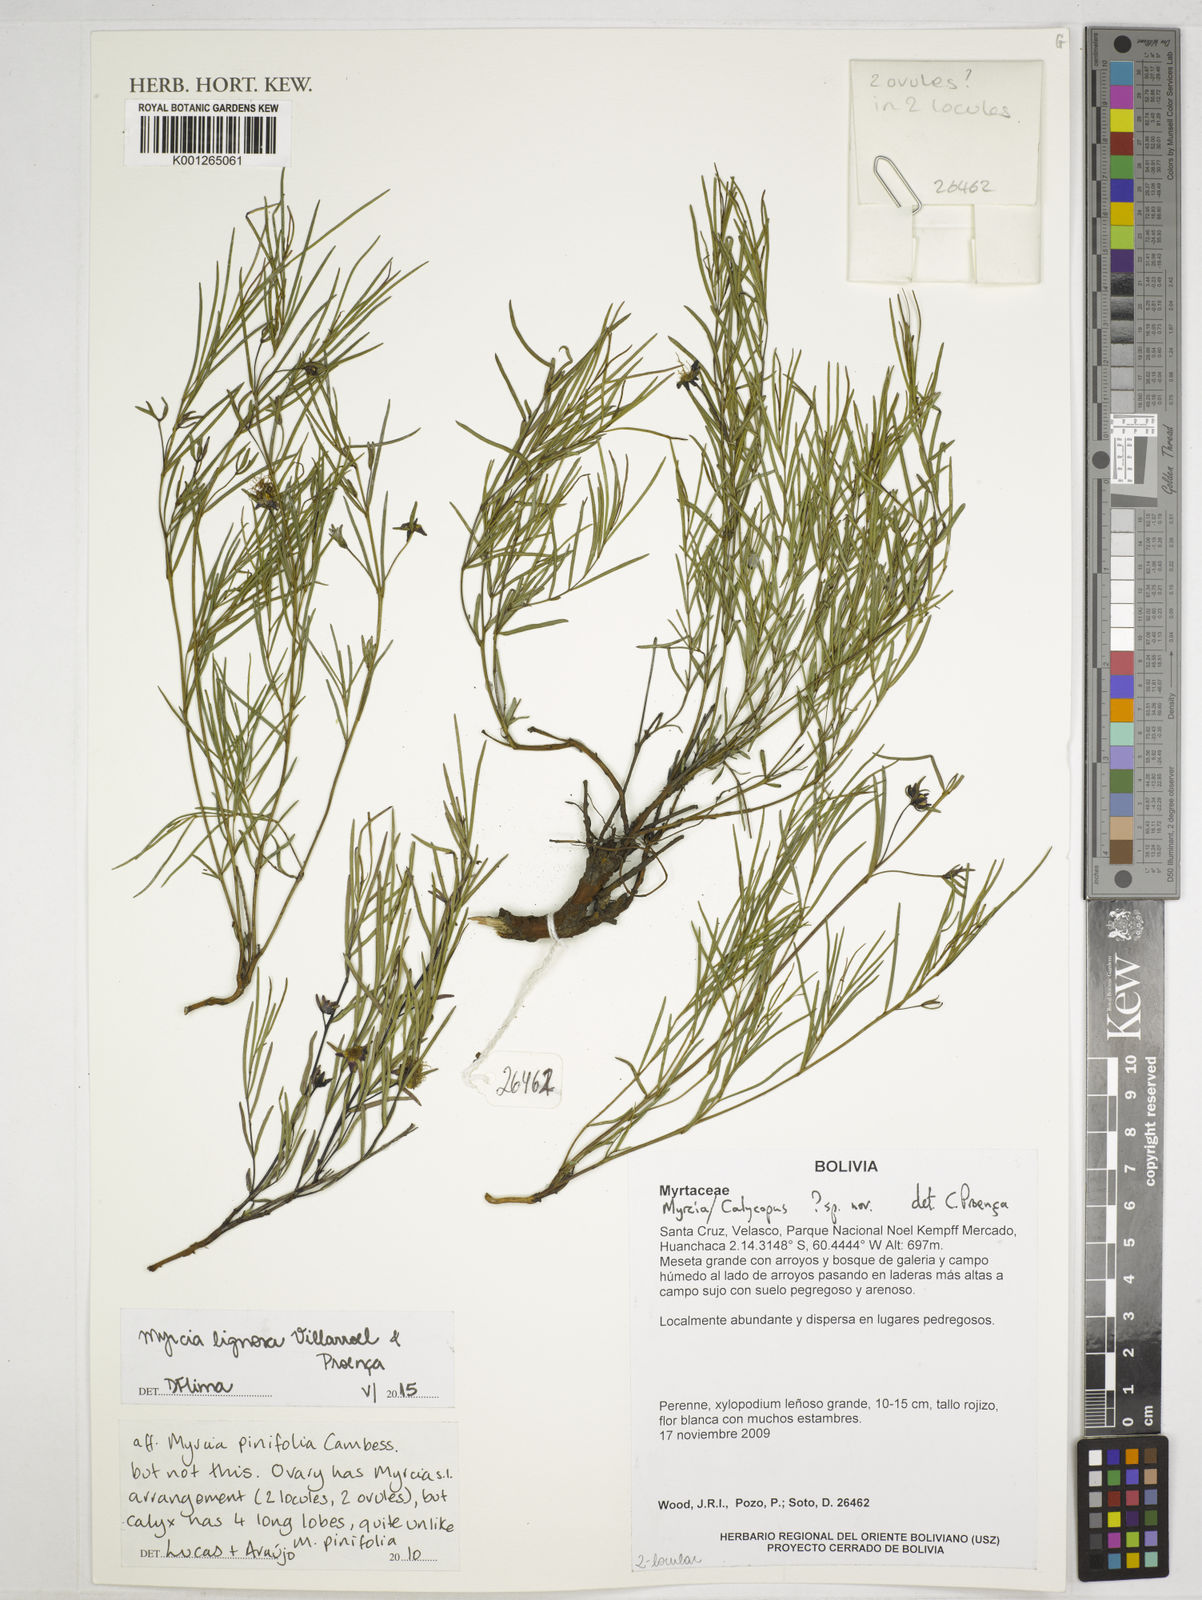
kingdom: Plantae
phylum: Tracheophyta
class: Magnoliopsida
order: Myrtales
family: Myrtaceae
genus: Myrcia
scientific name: Myrcia lignosa
